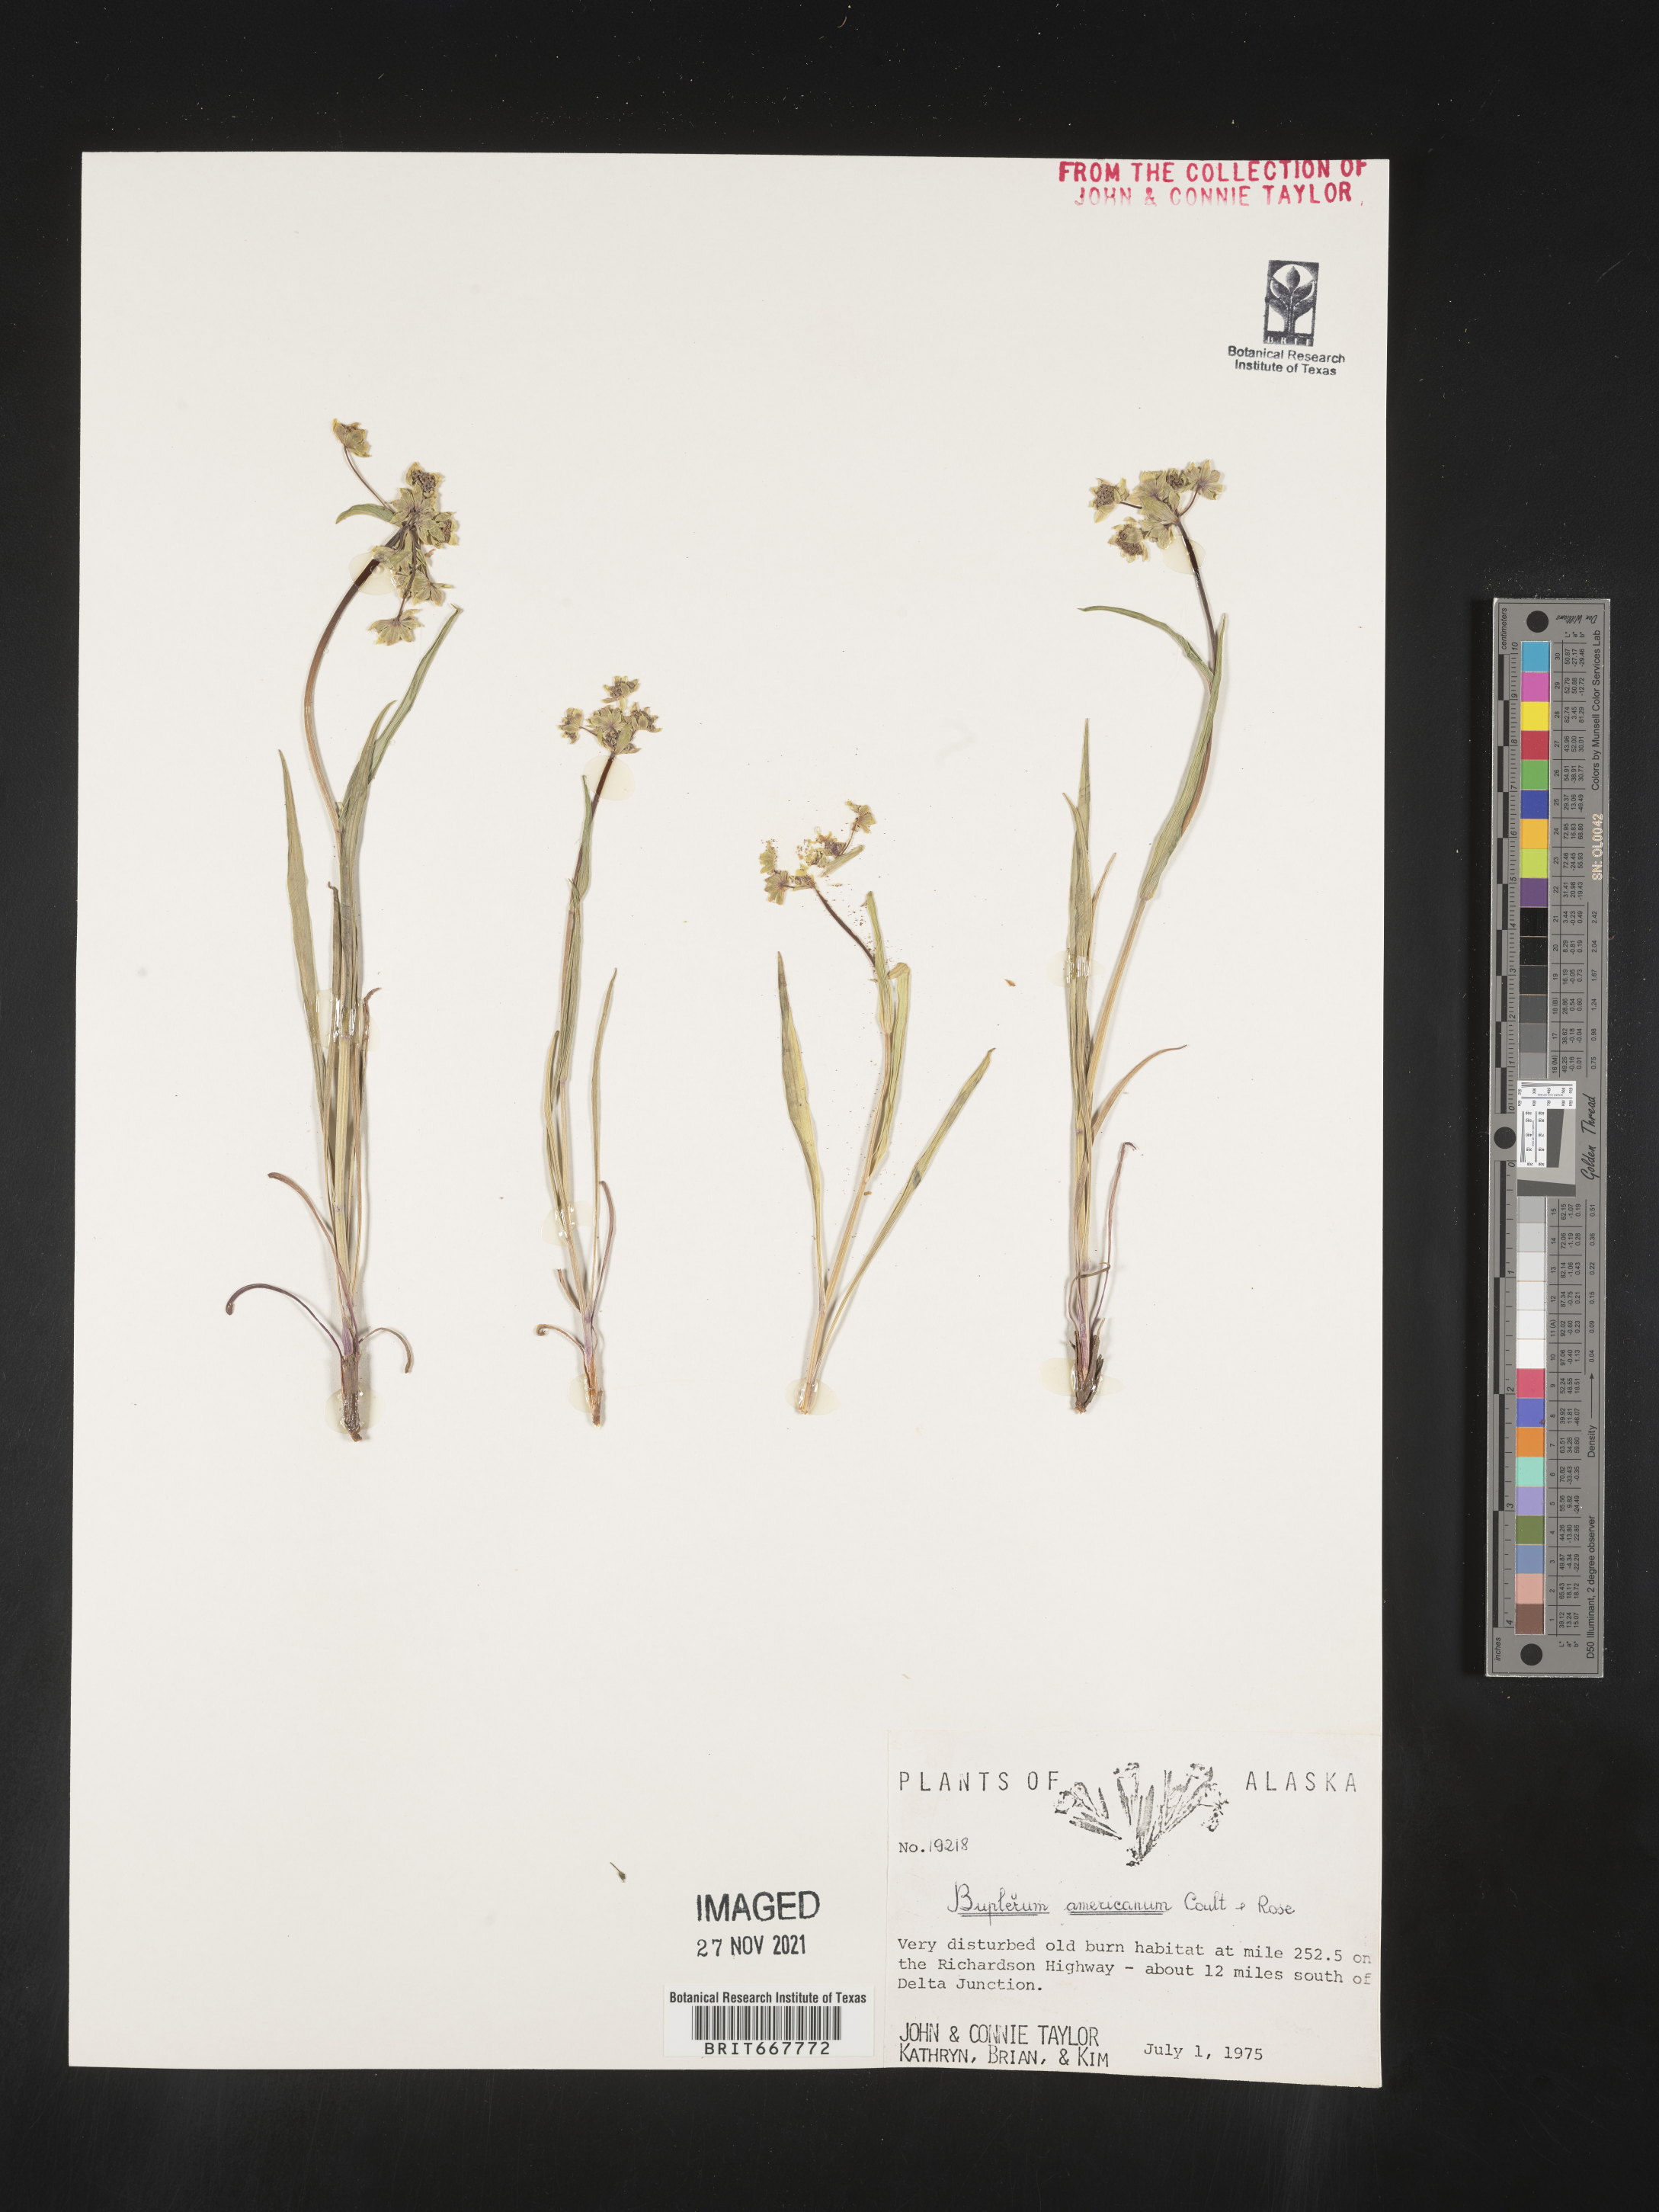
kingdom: Plantae
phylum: Tracheophyta
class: Magnoliopsida
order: Apiales
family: Apiaceae
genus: Bupleurum
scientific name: Bupleurum
